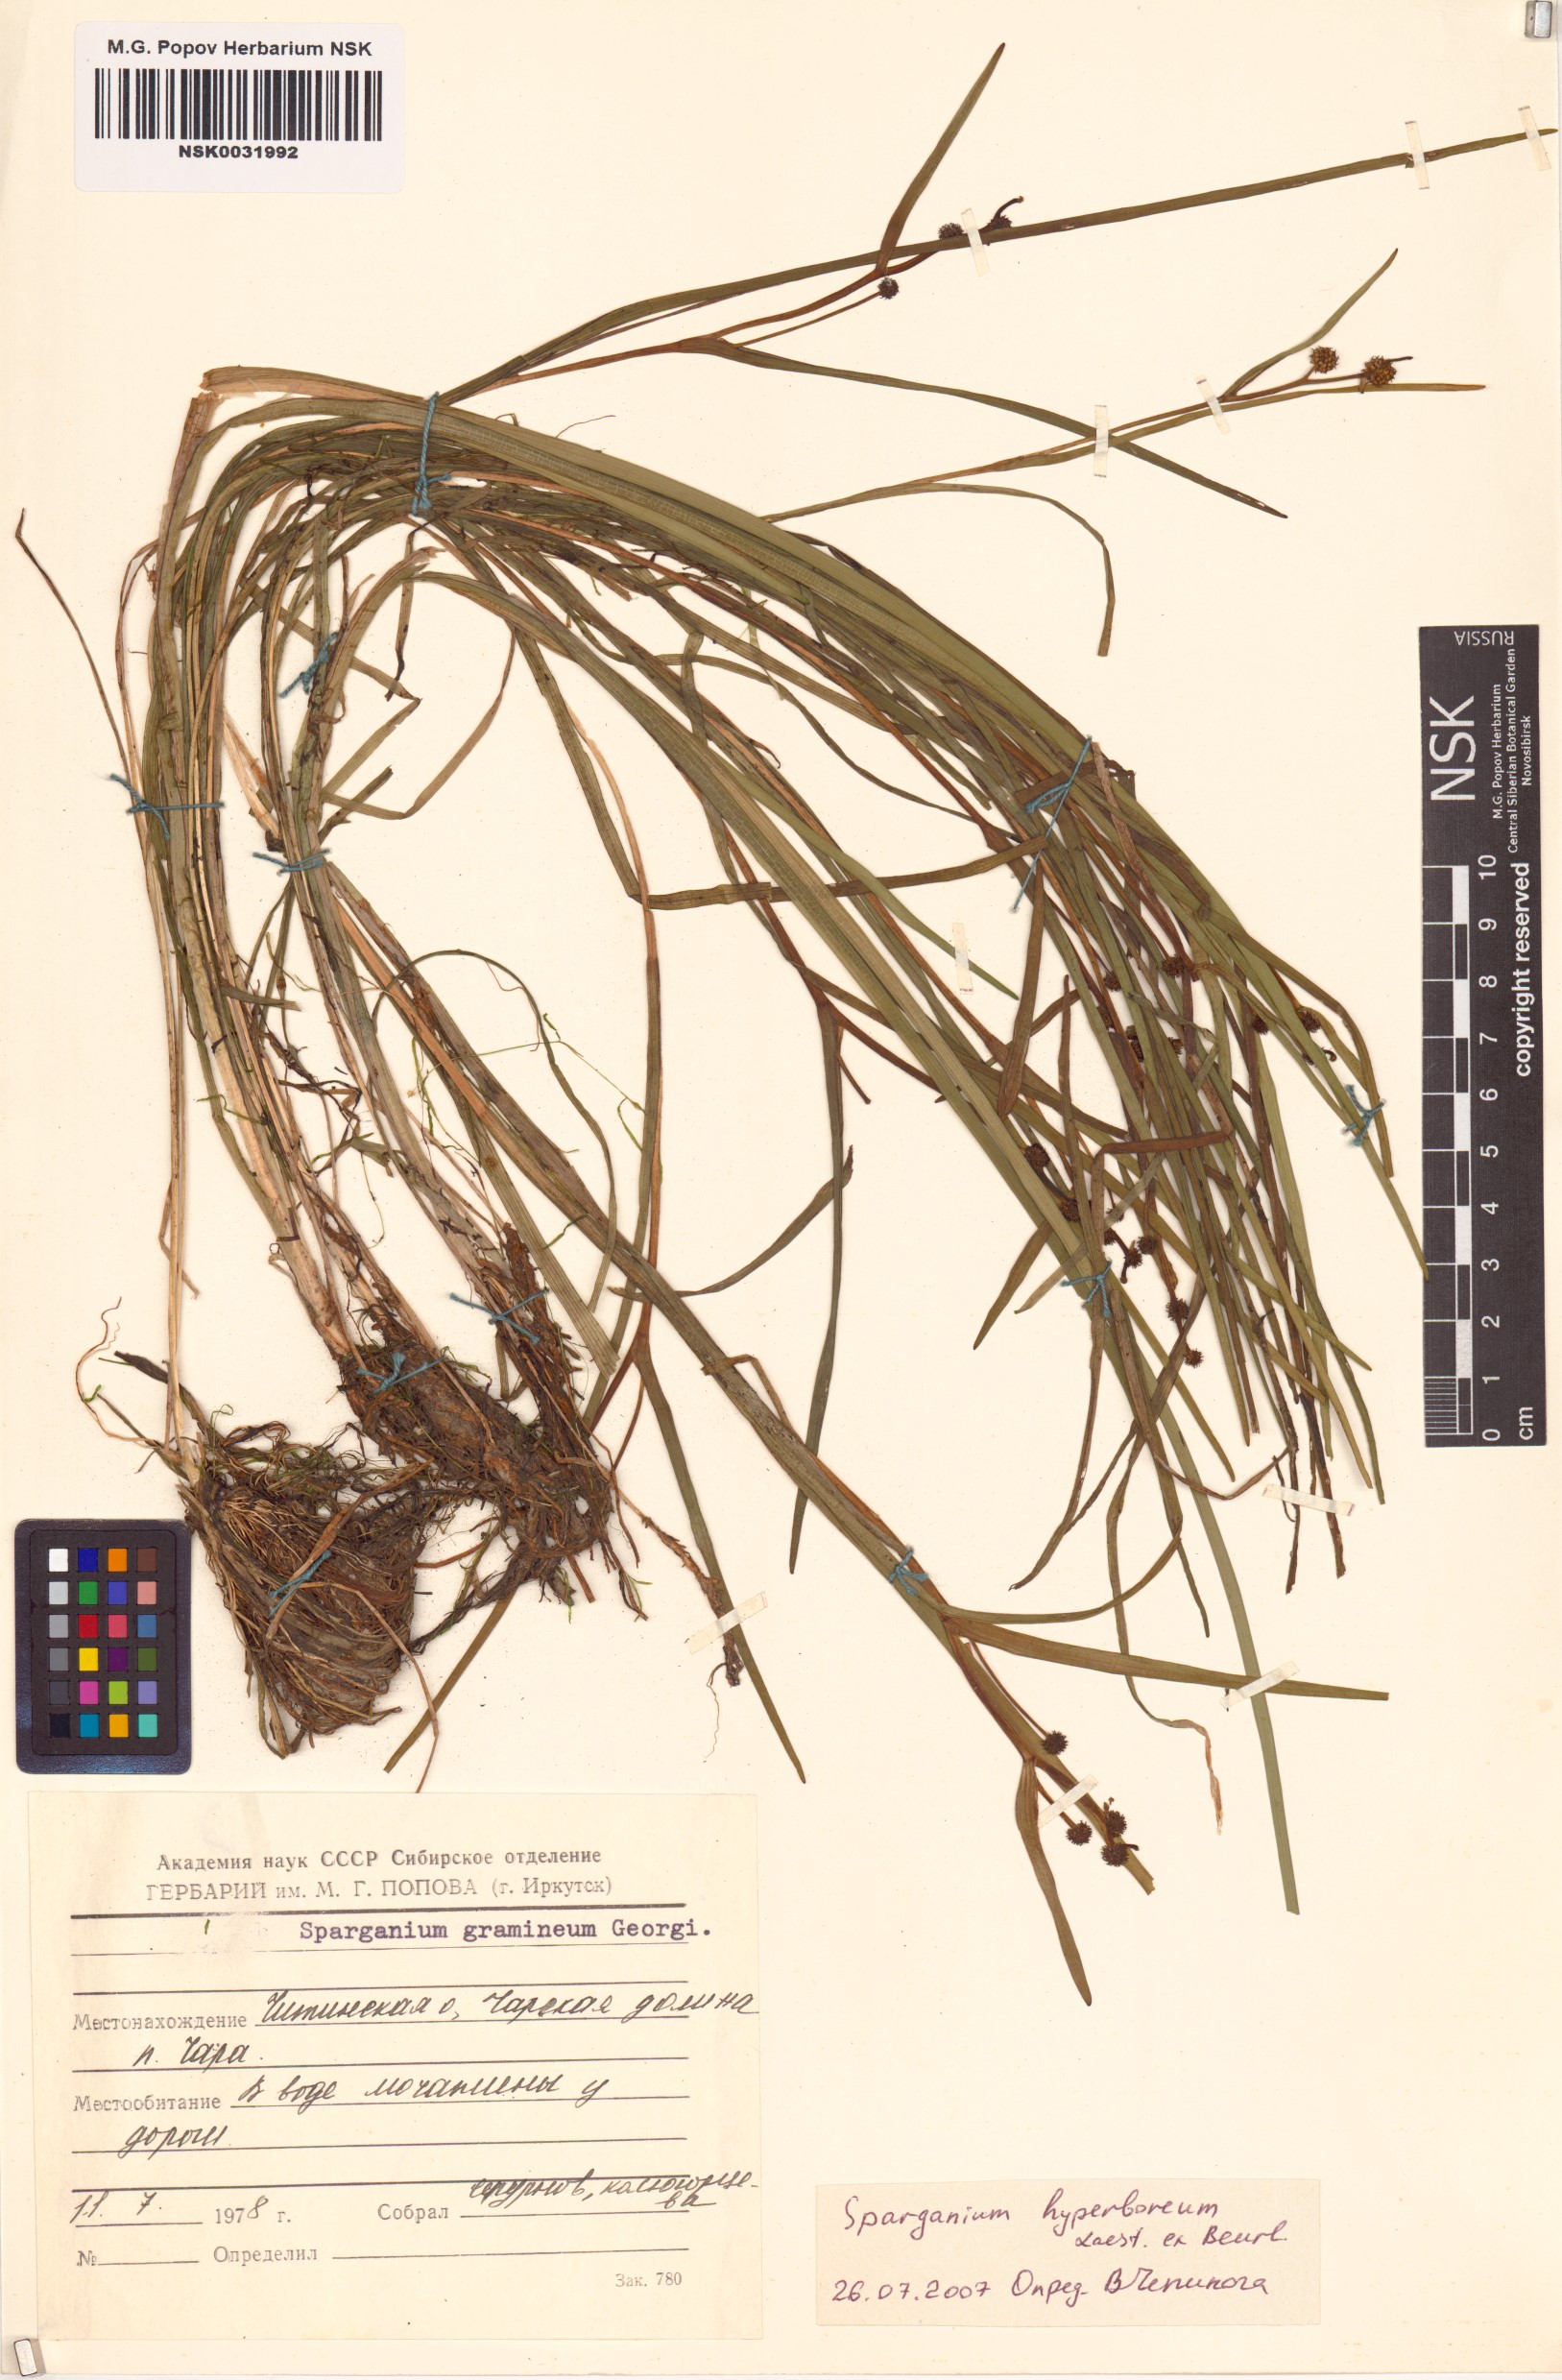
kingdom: Plantae
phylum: Tracheophyta
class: Liliopsida
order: Poales
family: Typhaceae
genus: Sparganium
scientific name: Sparganium hyperboreum
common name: Arctic burreed
